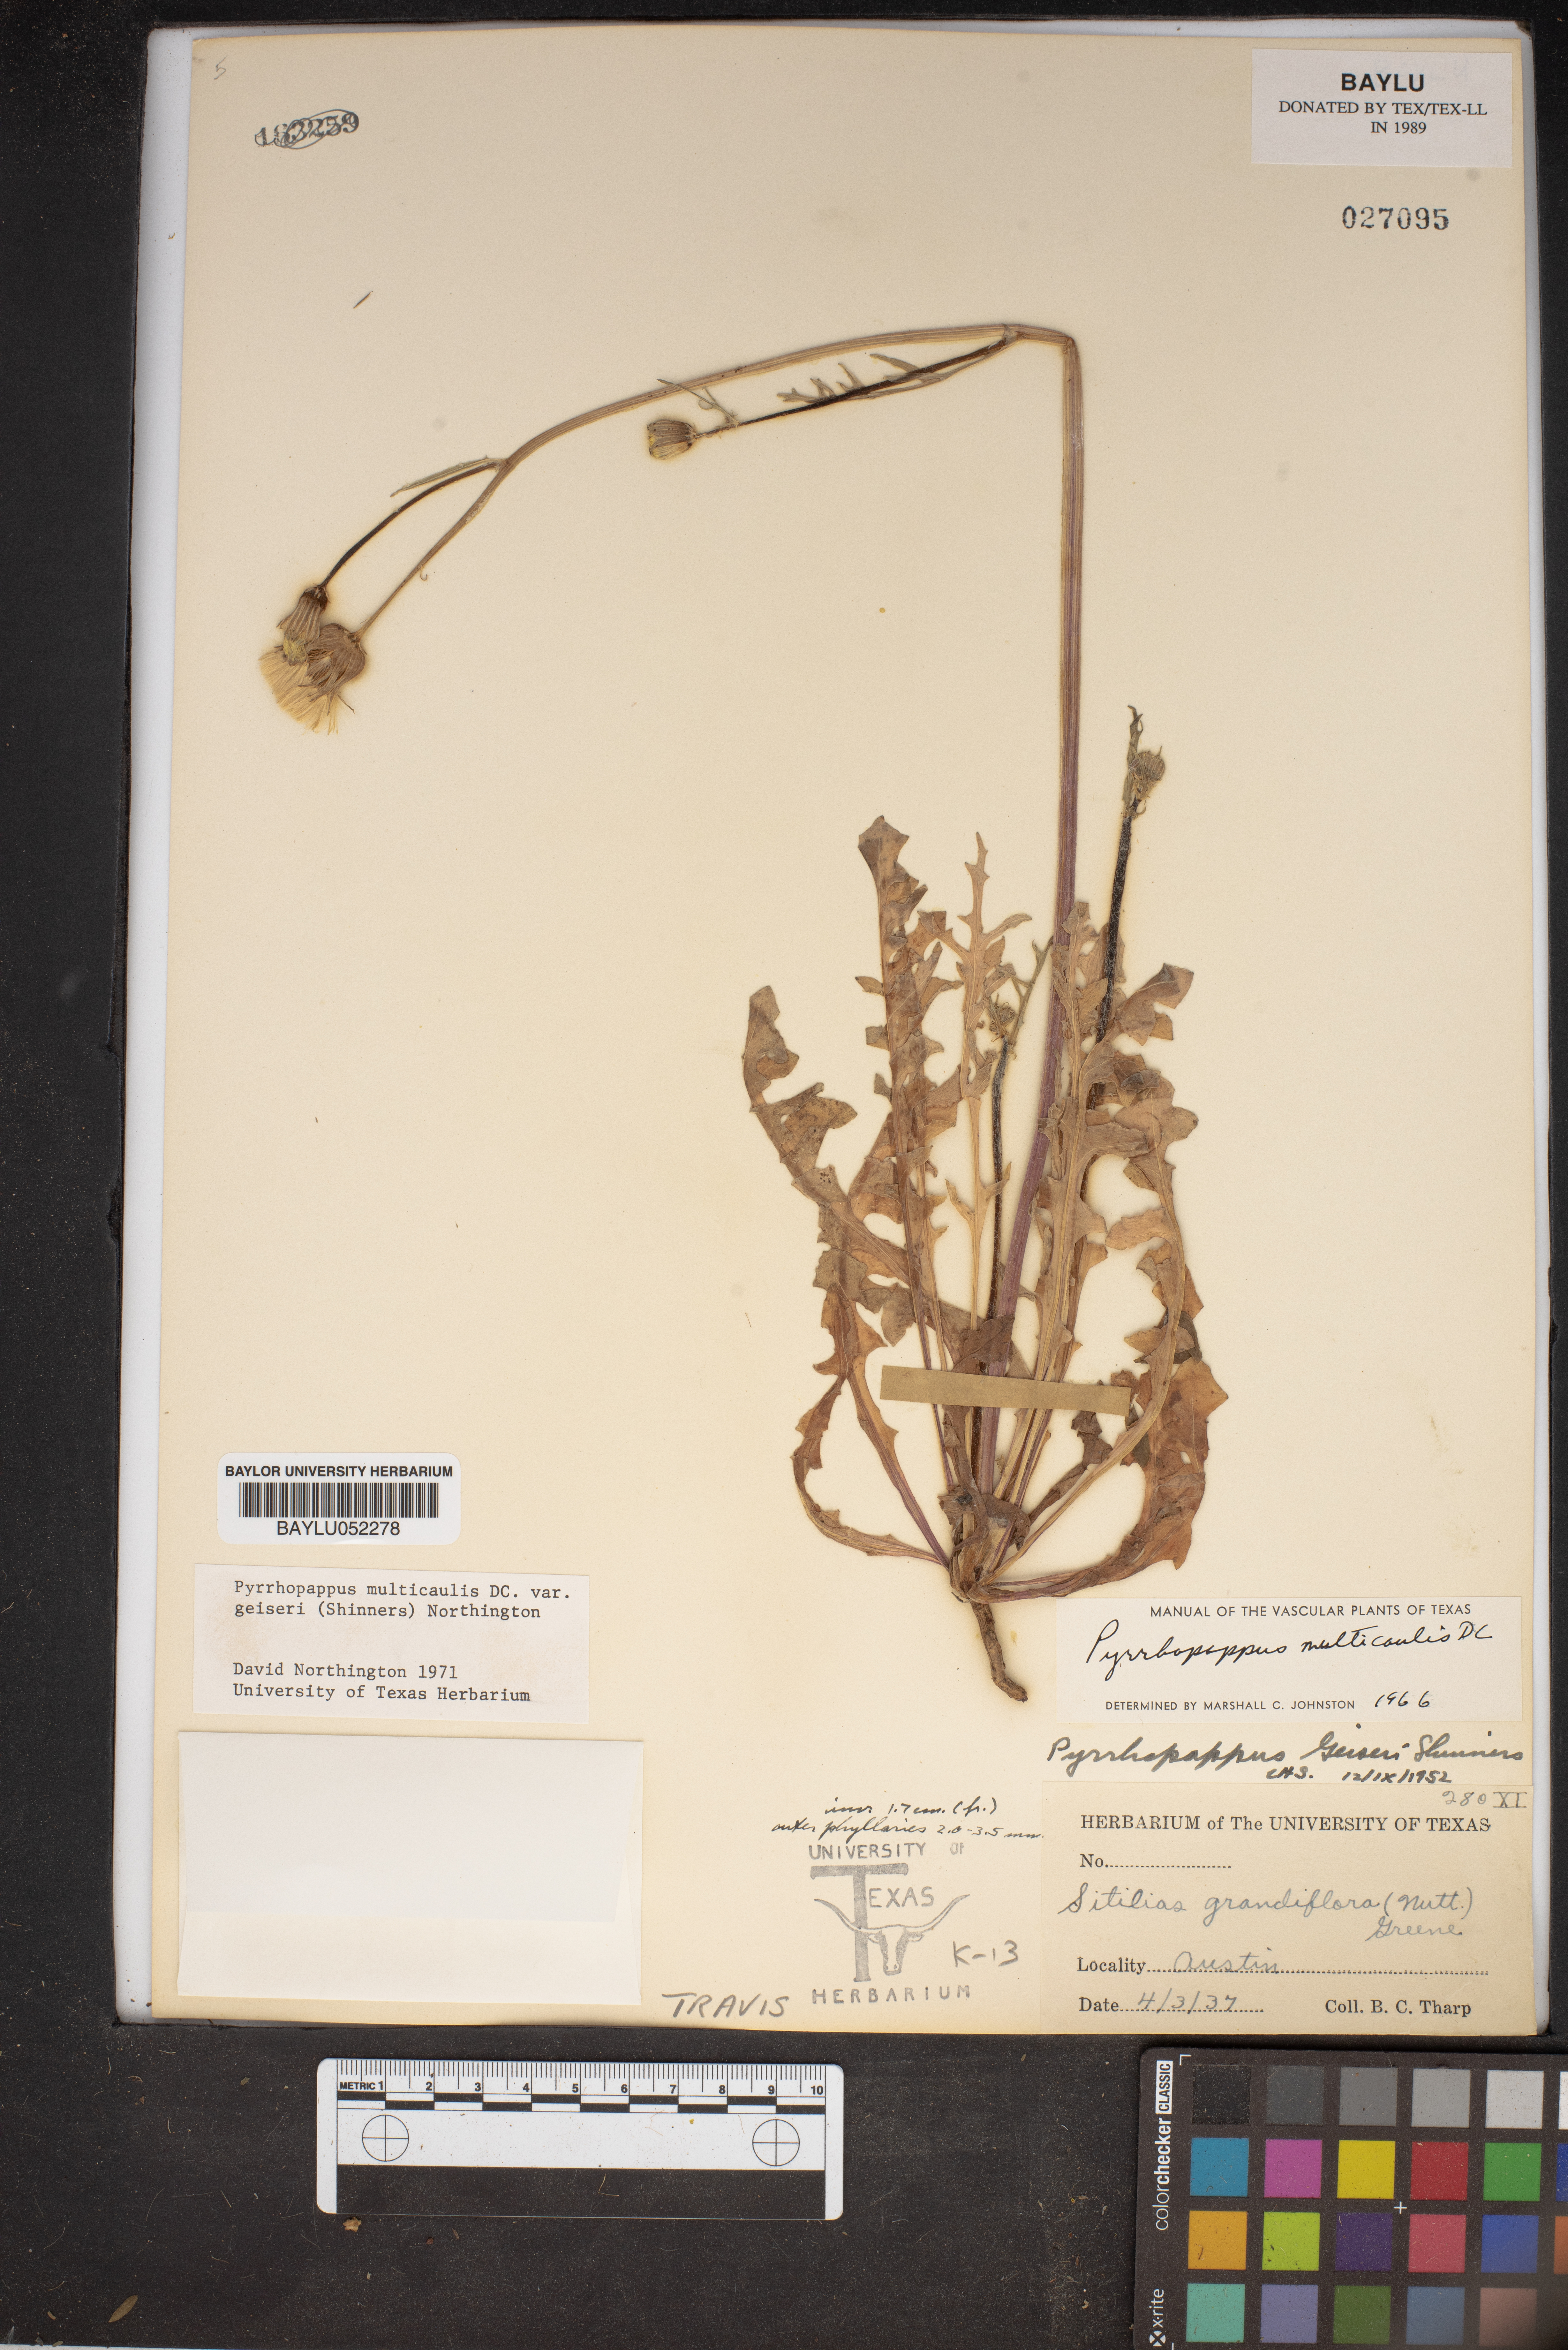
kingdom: Plantae
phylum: Tracheophyta
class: Magnoliopsida
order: Asterales
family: Asteraceae
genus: Pyrrhopappus
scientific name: Pyrrhopappus grandiflorus
